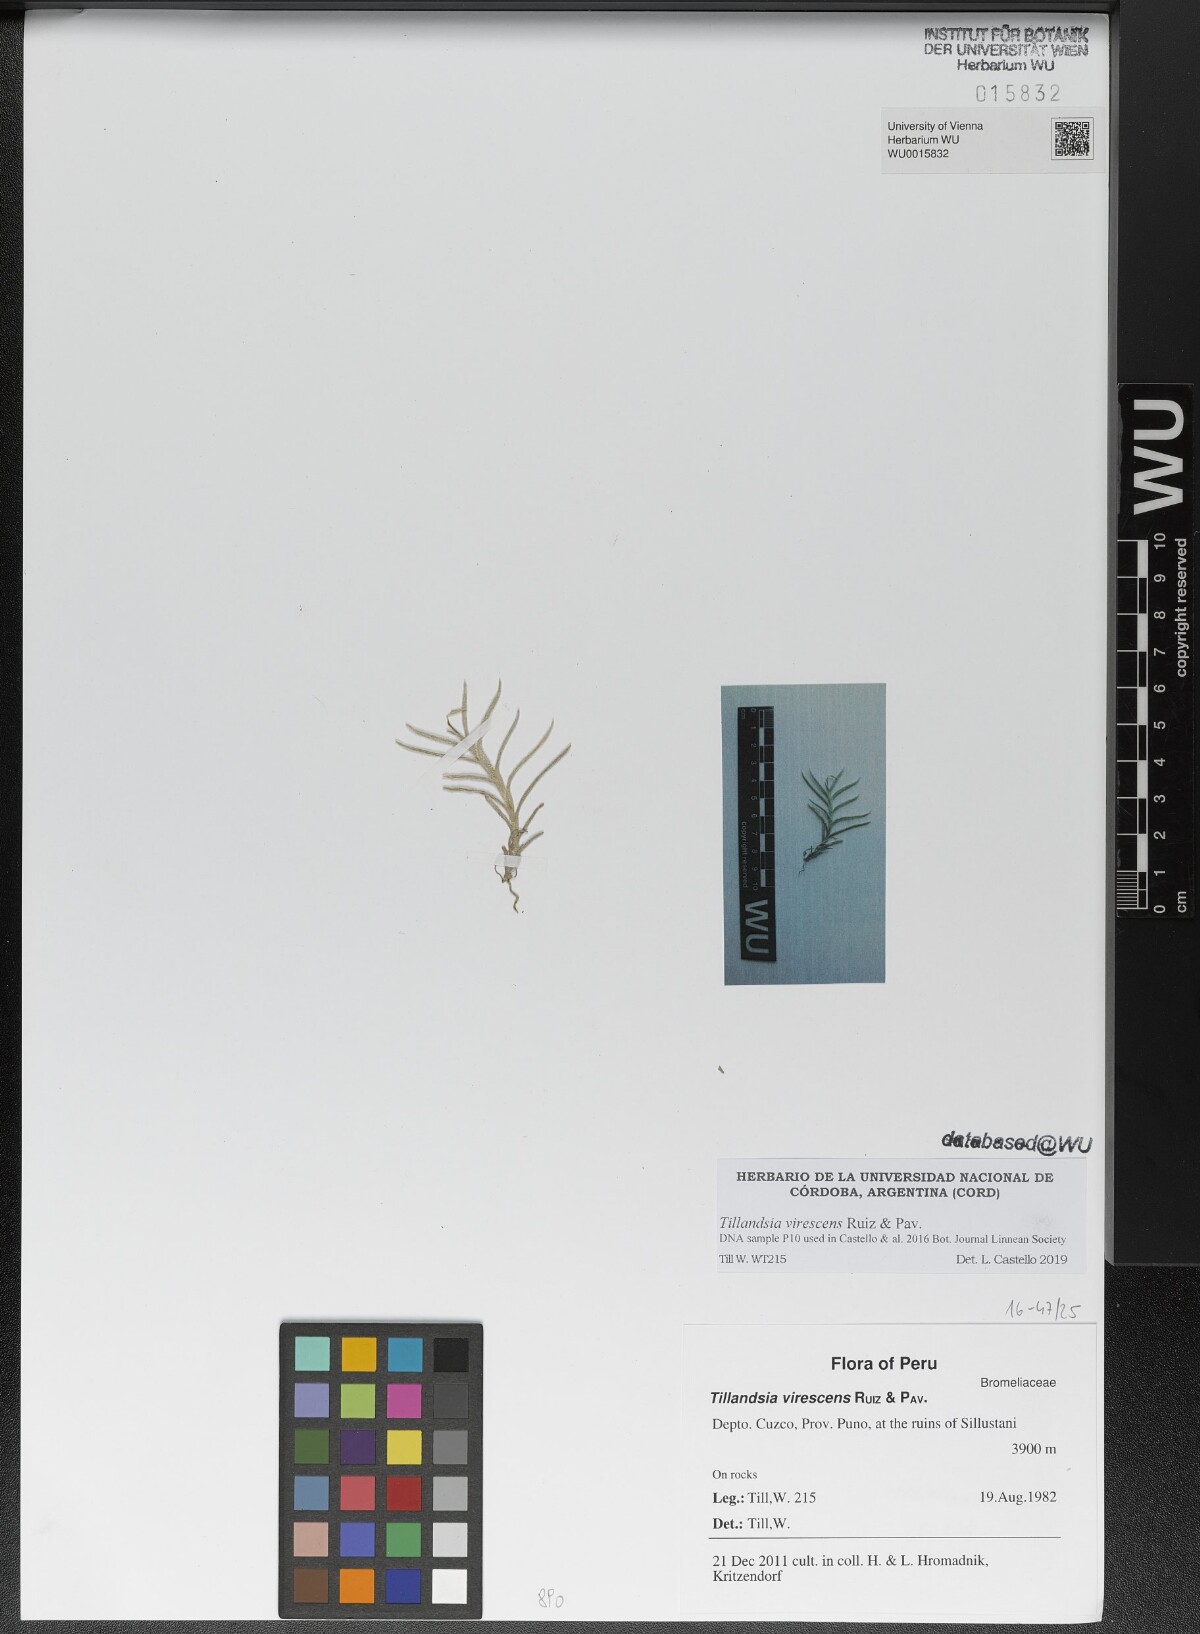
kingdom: Plantae
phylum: Tracheophyta
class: Liliopsida
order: Poales
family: Bromeliaceae
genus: Tillandsia
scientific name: Tillandsia virescens
